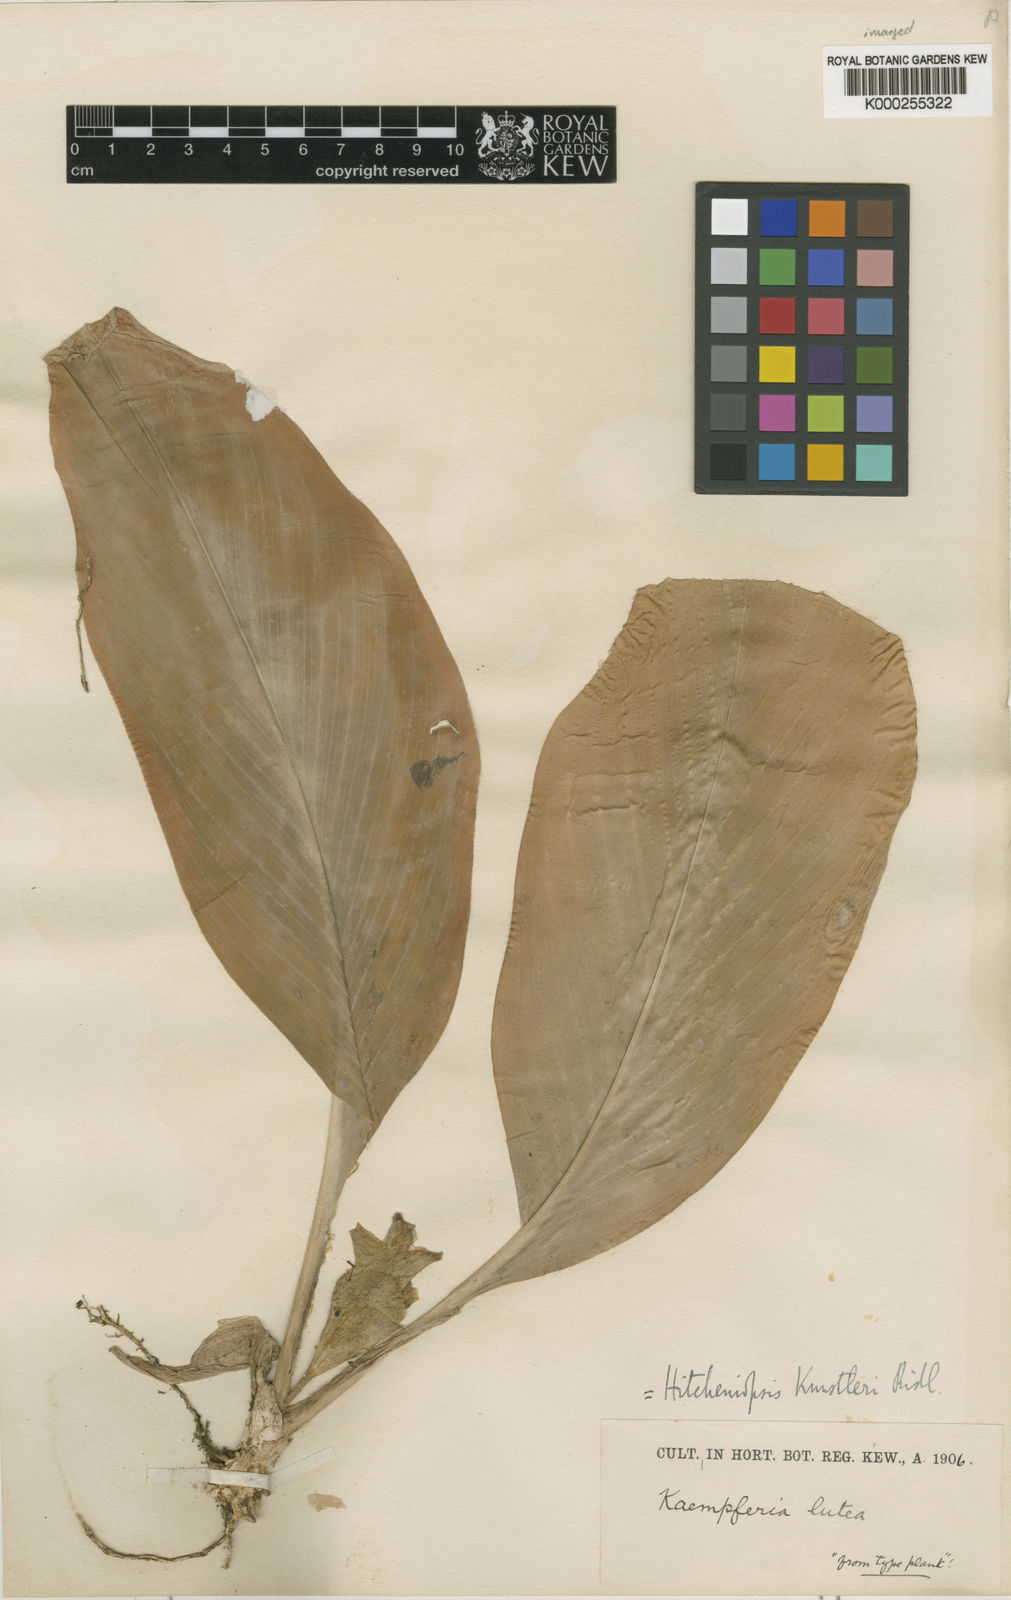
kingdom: Plantae
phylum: Tracheophyta
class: Liliopsida
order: Zingiberales
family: Zingiberaceae
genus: Scaphochlamys
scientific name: Scaphochlamys kunstleri
